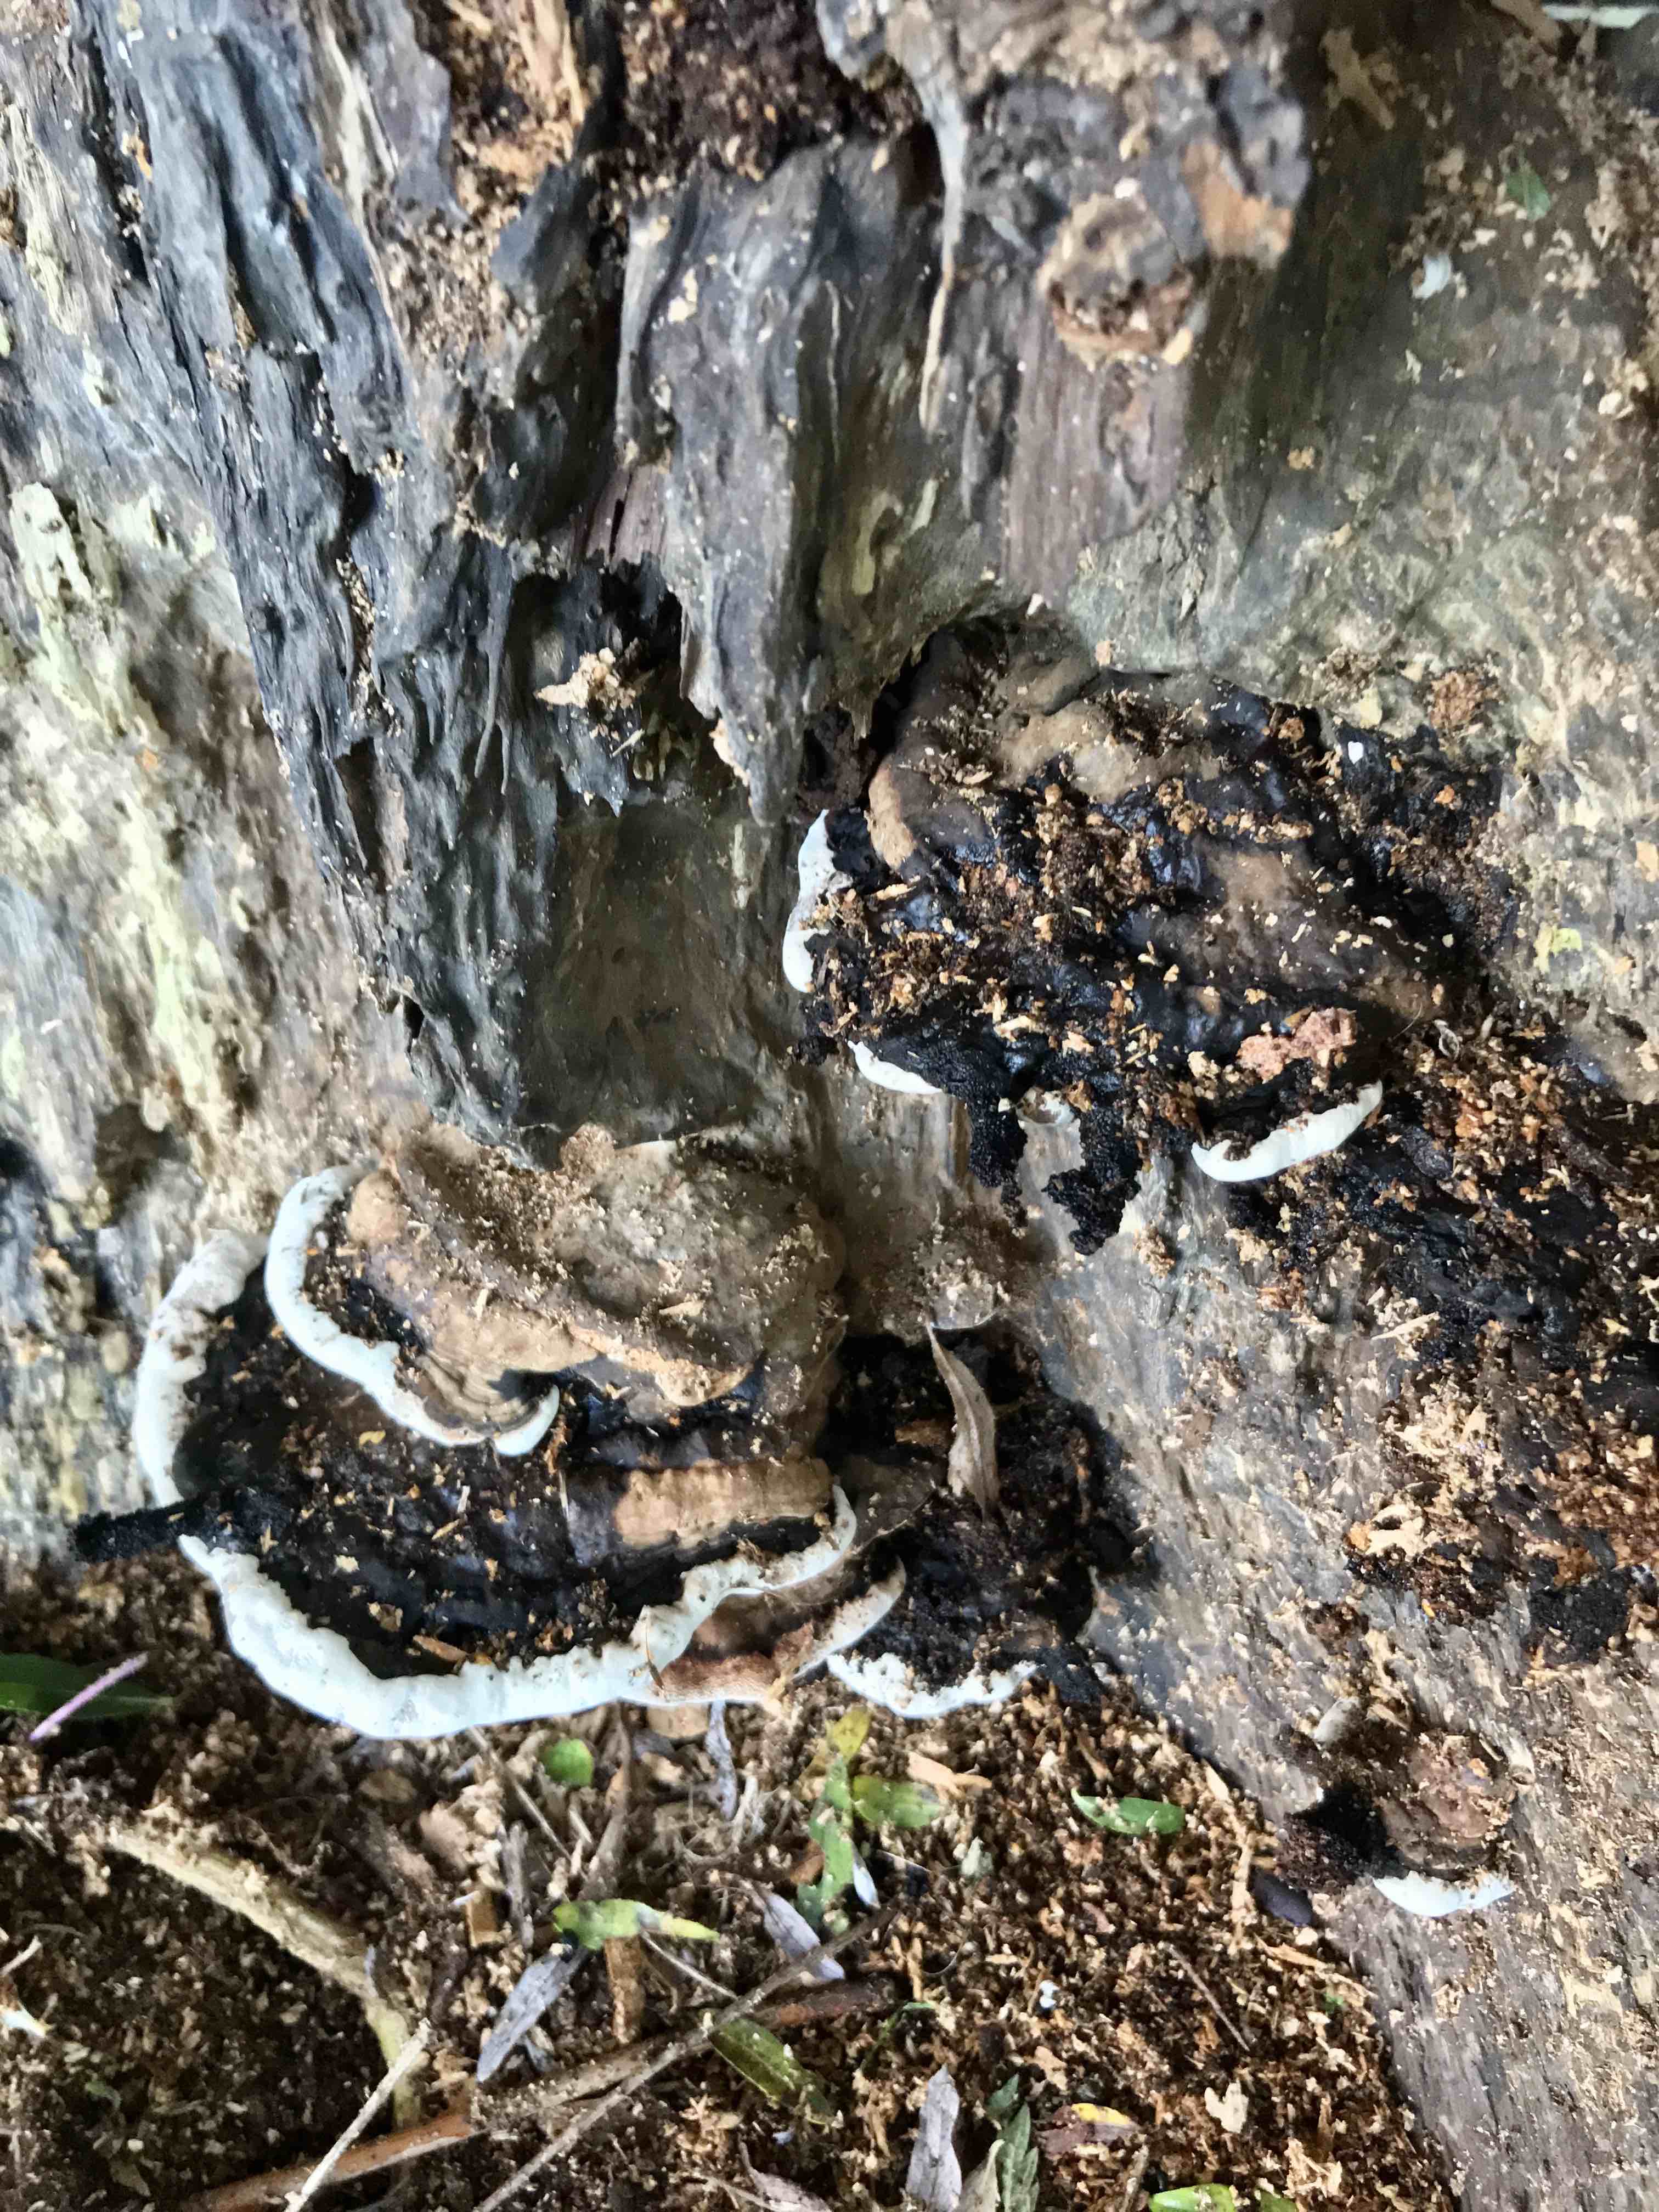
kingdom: Fungi
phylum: Basidiomycota
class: Agaricomycetes
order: Polyporales
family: Polyporaceae
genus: Ganoderma
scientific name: Ganoderma applanatum
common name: flad lakporesvamp
